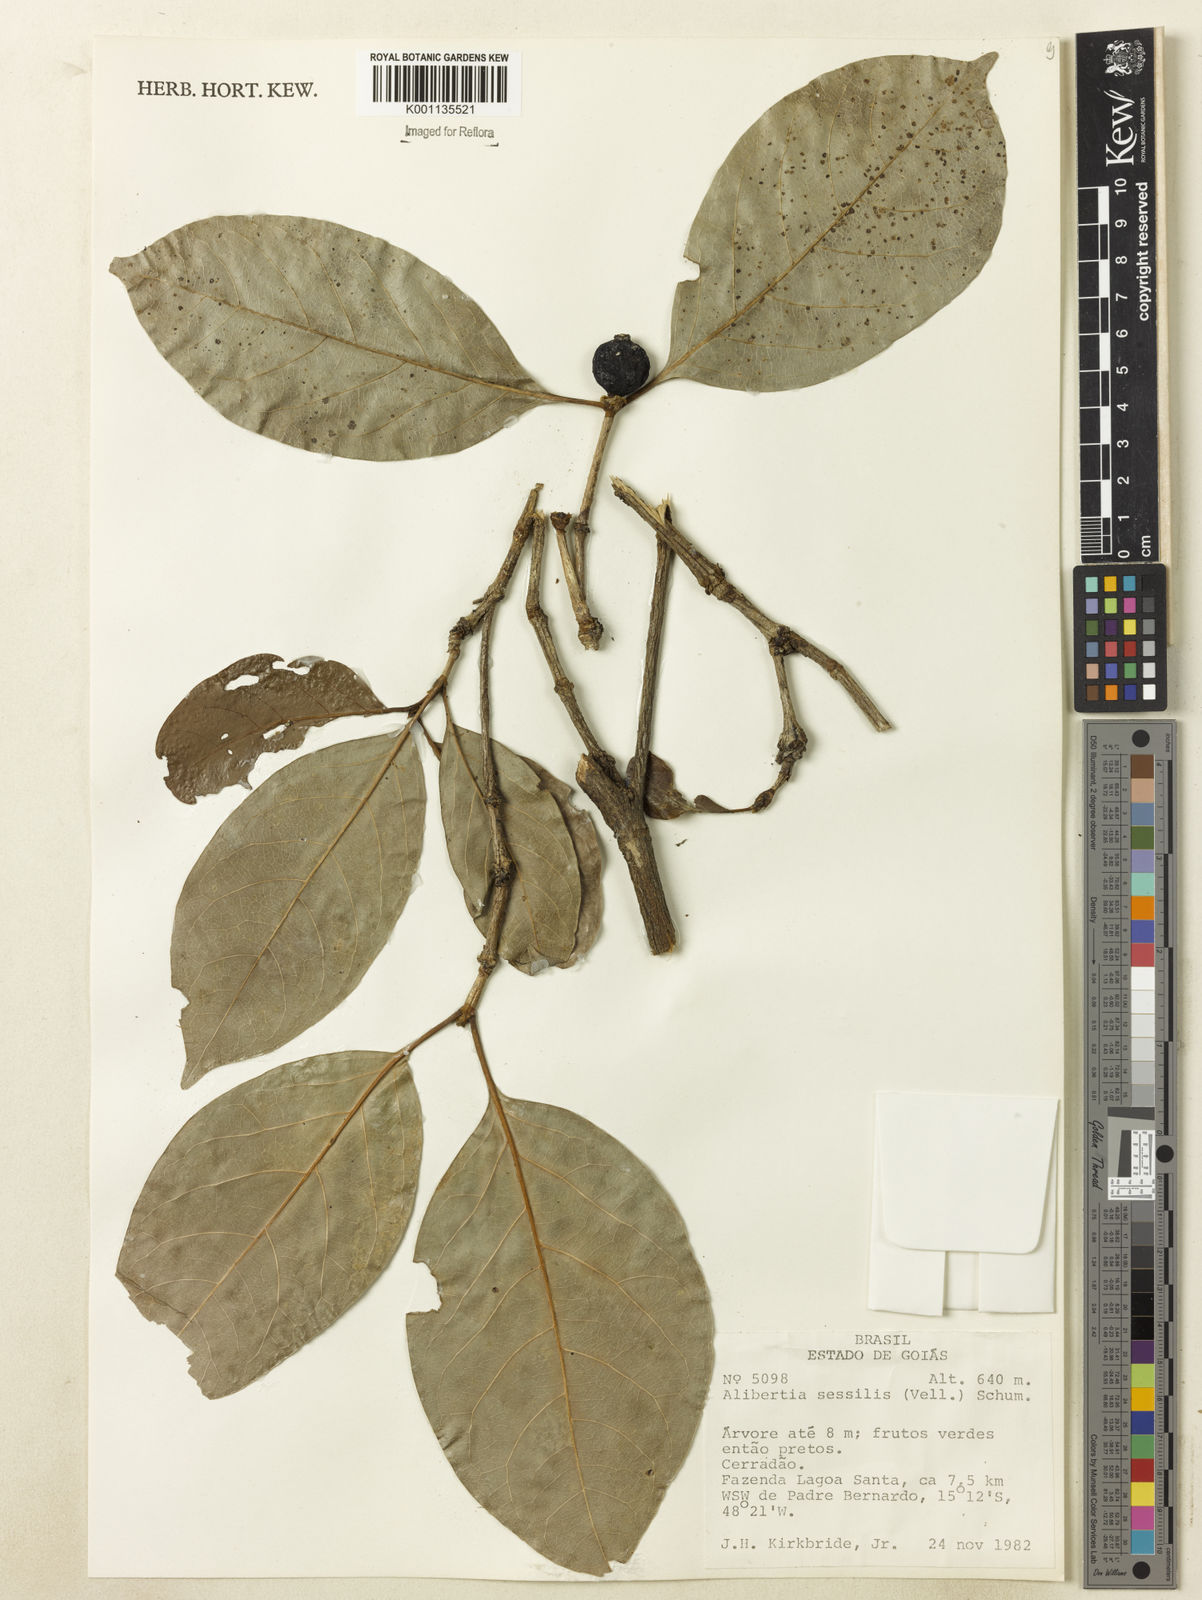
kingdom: Plantae
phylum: Tracheophyta
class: Magnoliopsida
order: Gentianales
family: Rubiaceae
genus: Cordiera
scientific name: Cordiera sessilis
